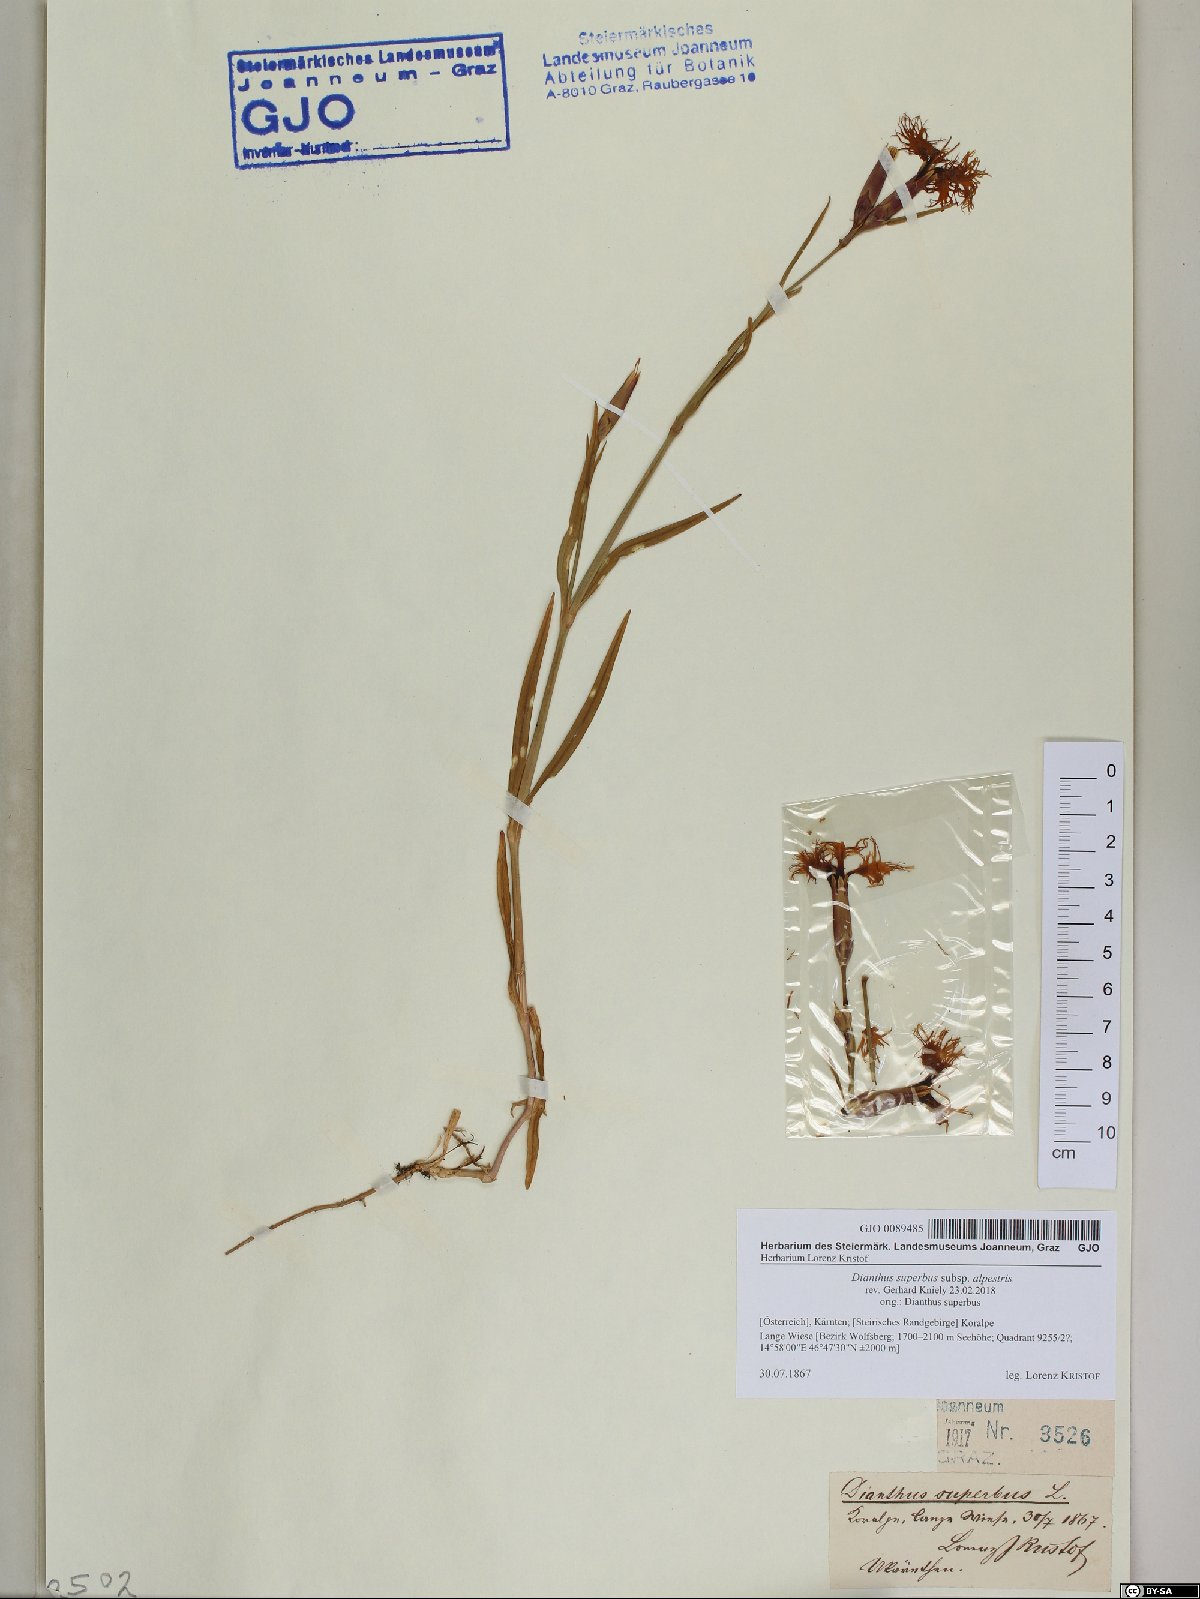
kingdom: Plantae
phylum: Tracheophyta
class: Magnoliopsida
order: Caryophyllales
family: Caryophyllaceae
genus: Dianthus
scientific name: Dianthus superbus
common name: Fringed pink
